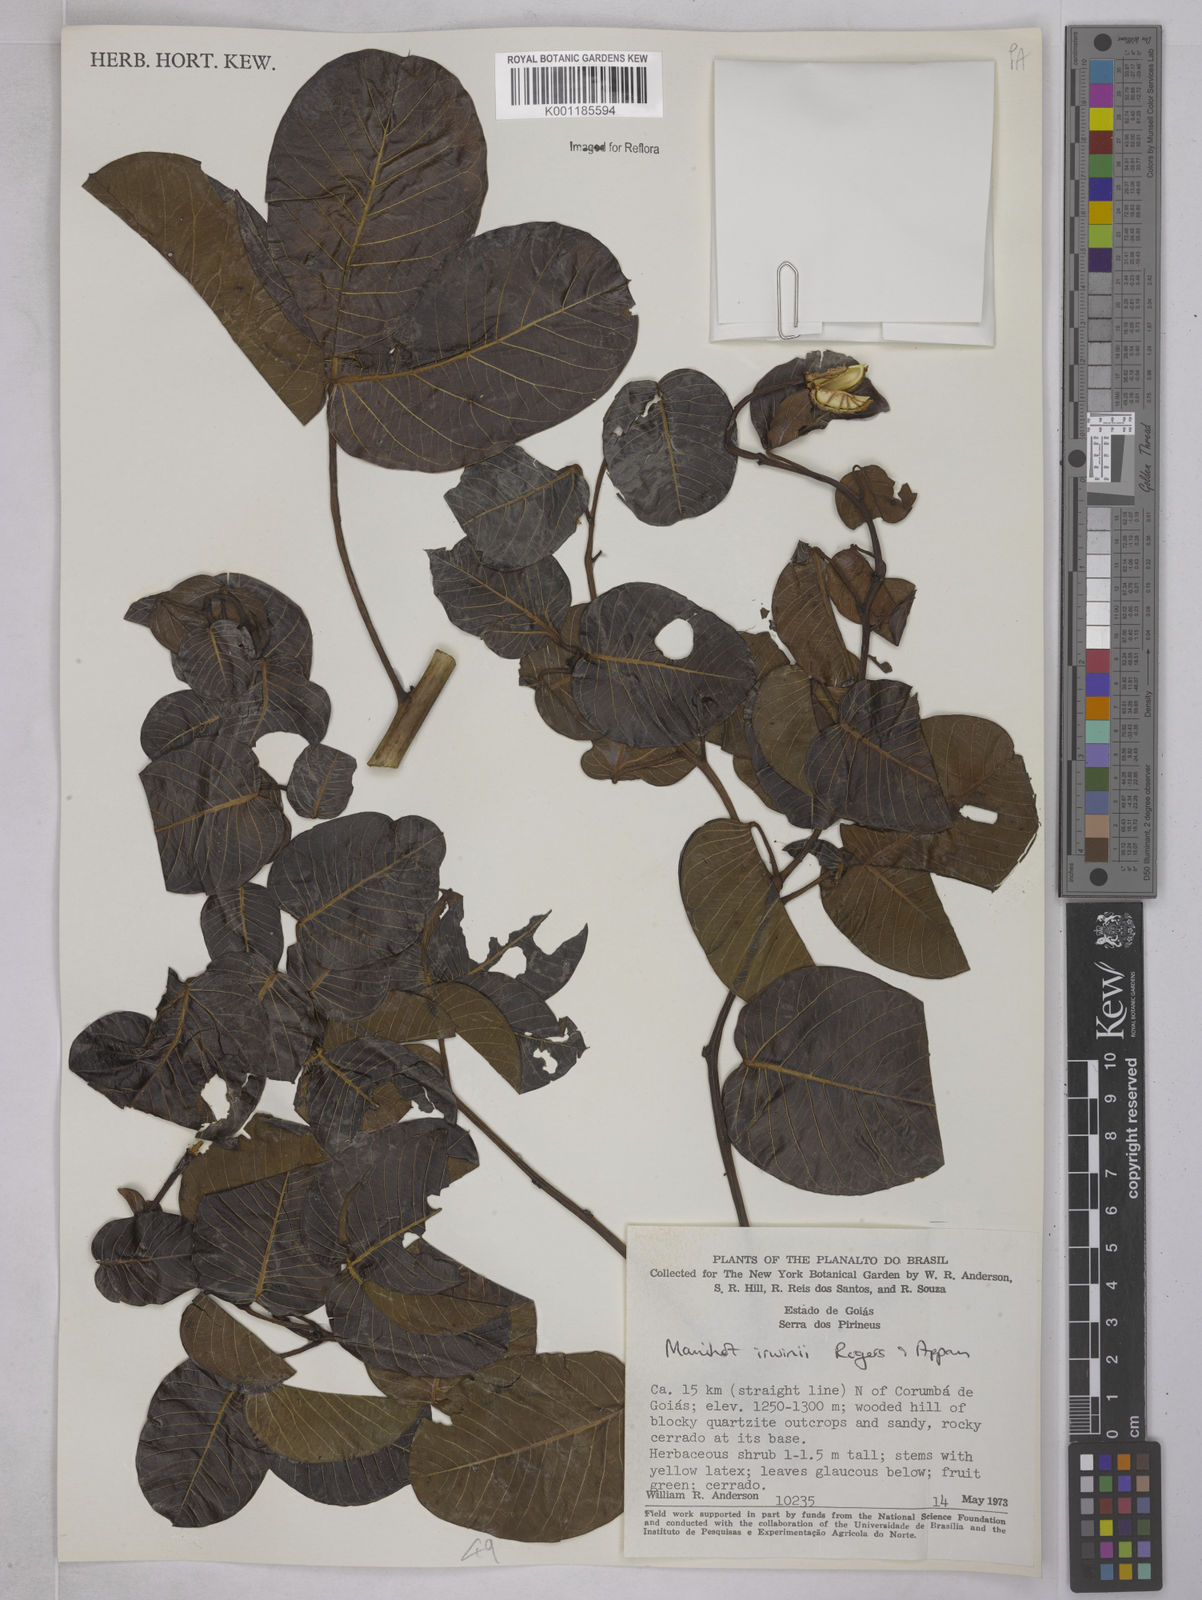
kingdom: Plantae
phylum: Tracheophyta
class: Magnoliopsida
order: Malpighiales
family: Euphorbiaceae
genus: Manihot
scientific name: Manihot irwinii
